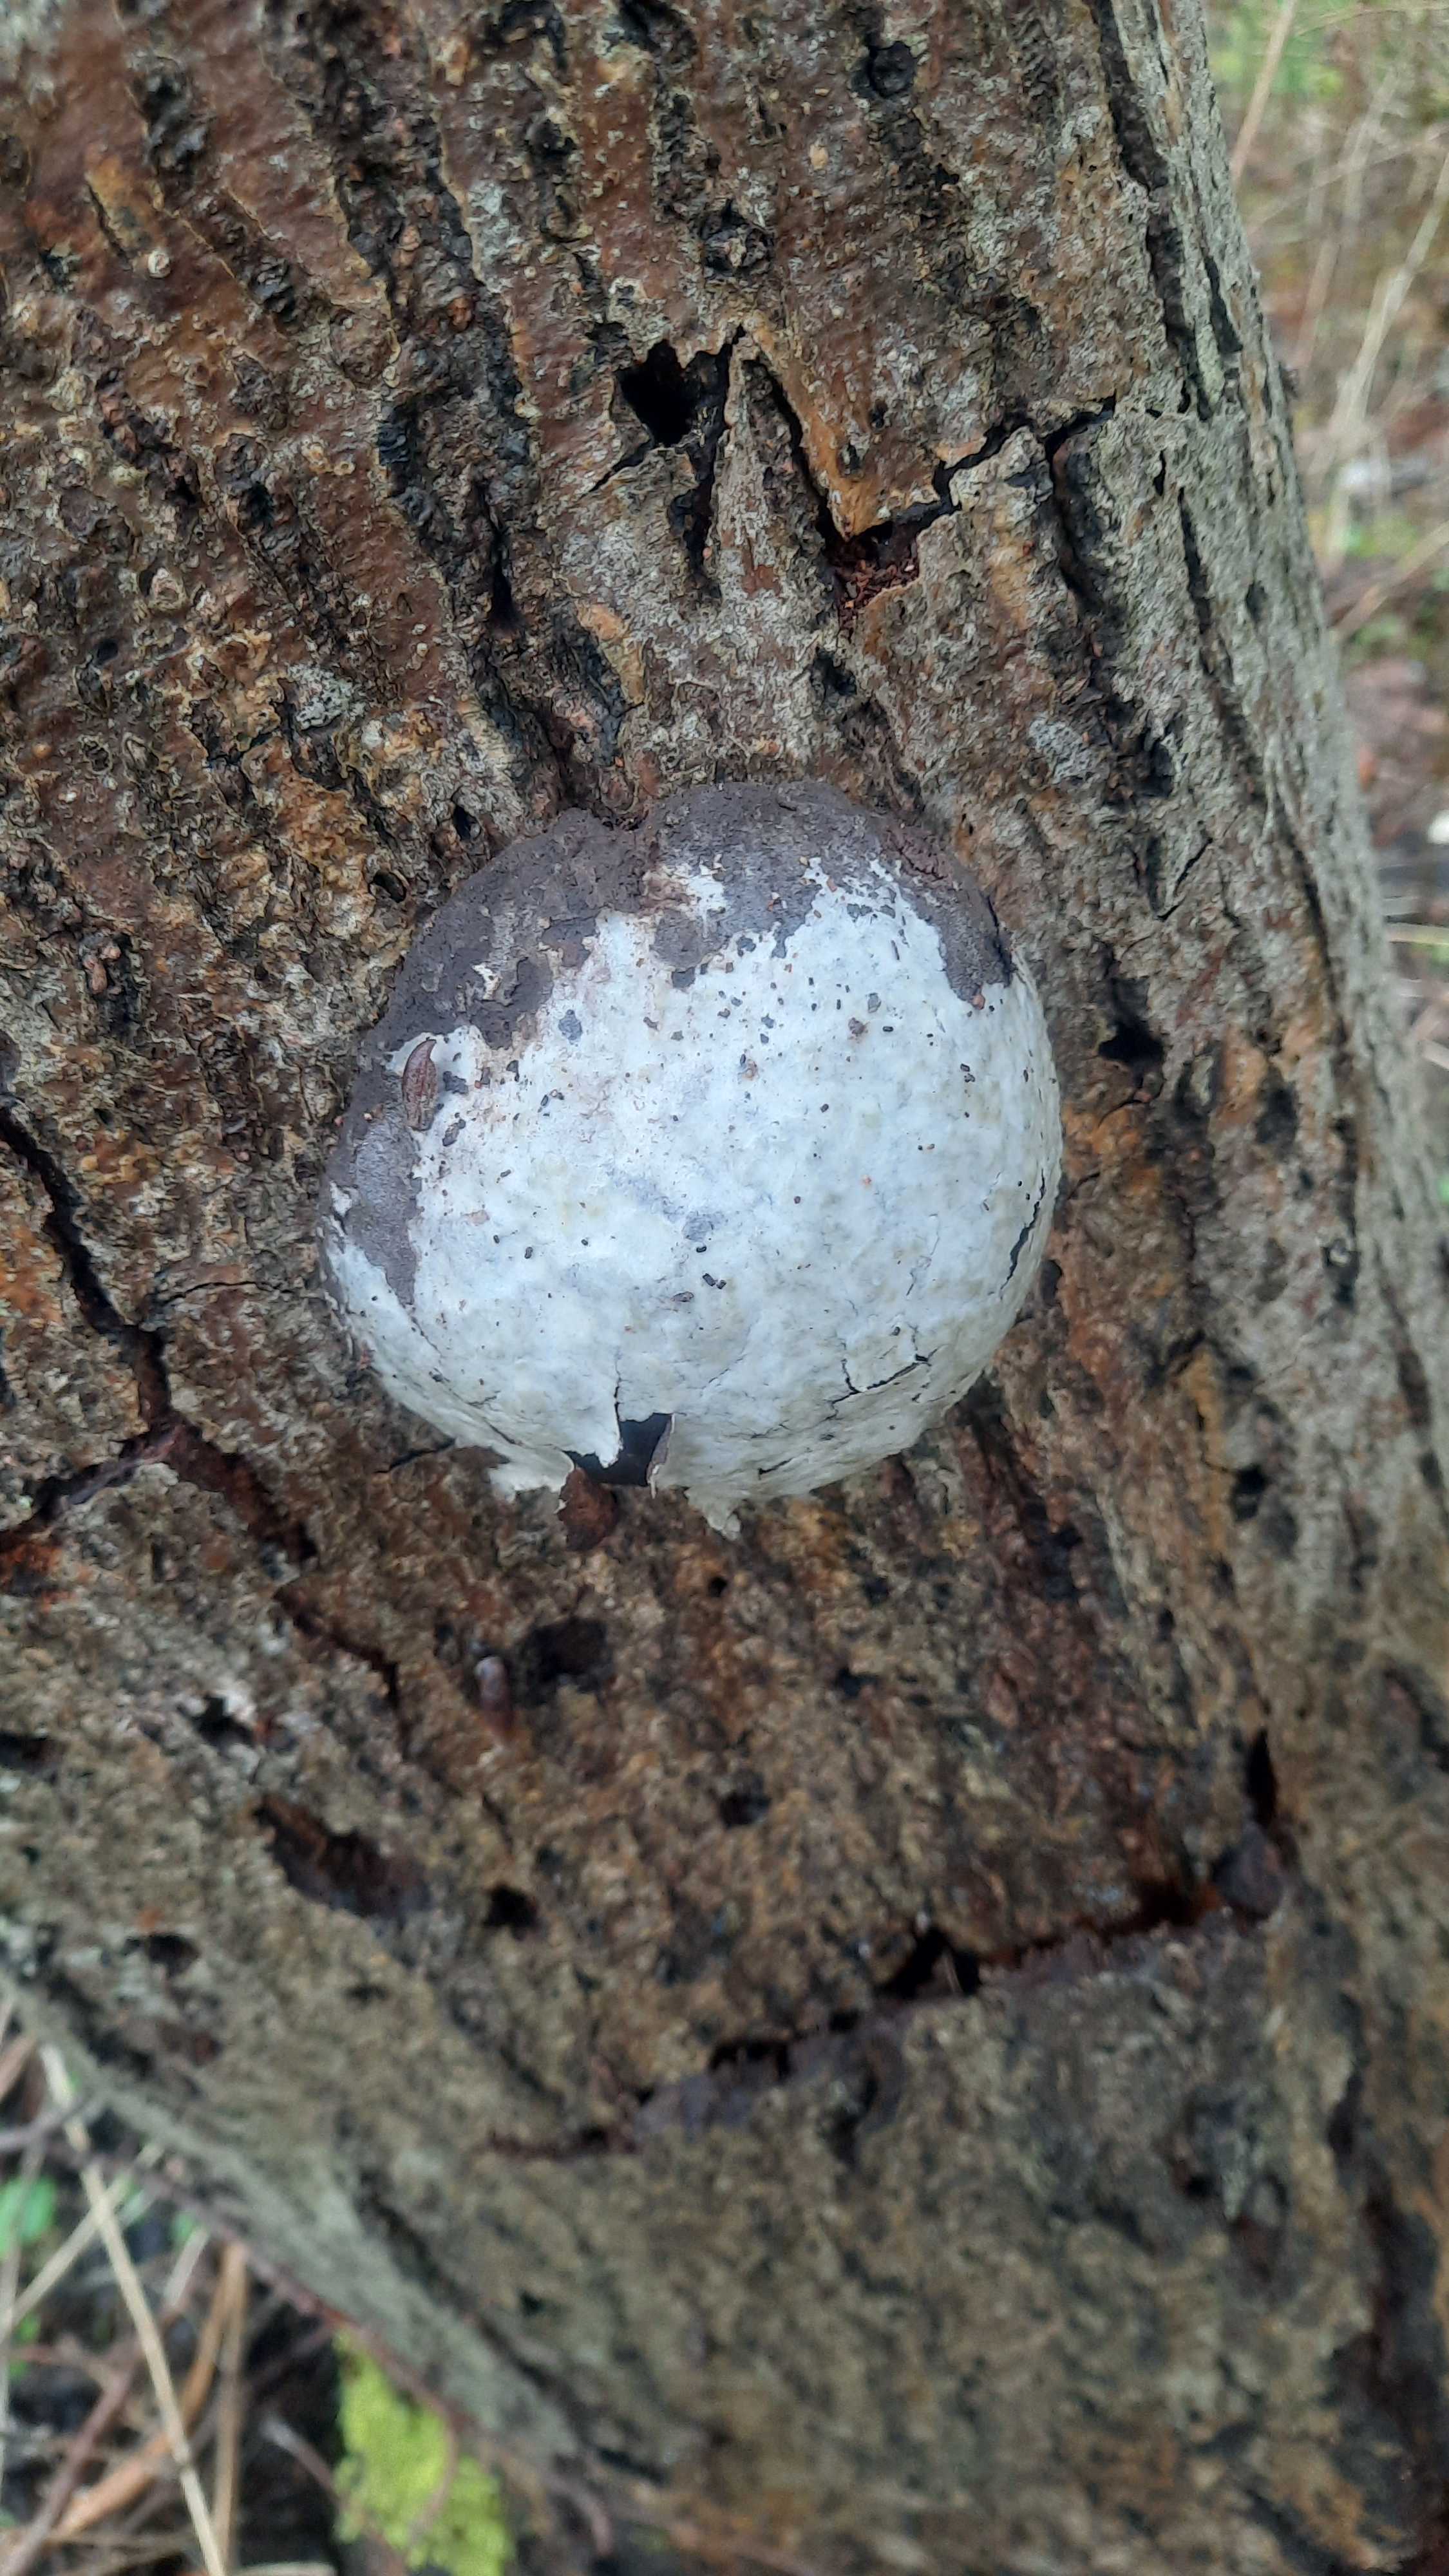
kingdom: Protozoa
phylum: Mycetozoa
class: Myxomycetes
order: Cribrariales
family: Tubiferaceae
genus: Reticularia
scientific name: Reticularia lycoperdon
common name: skinnende støvpude
